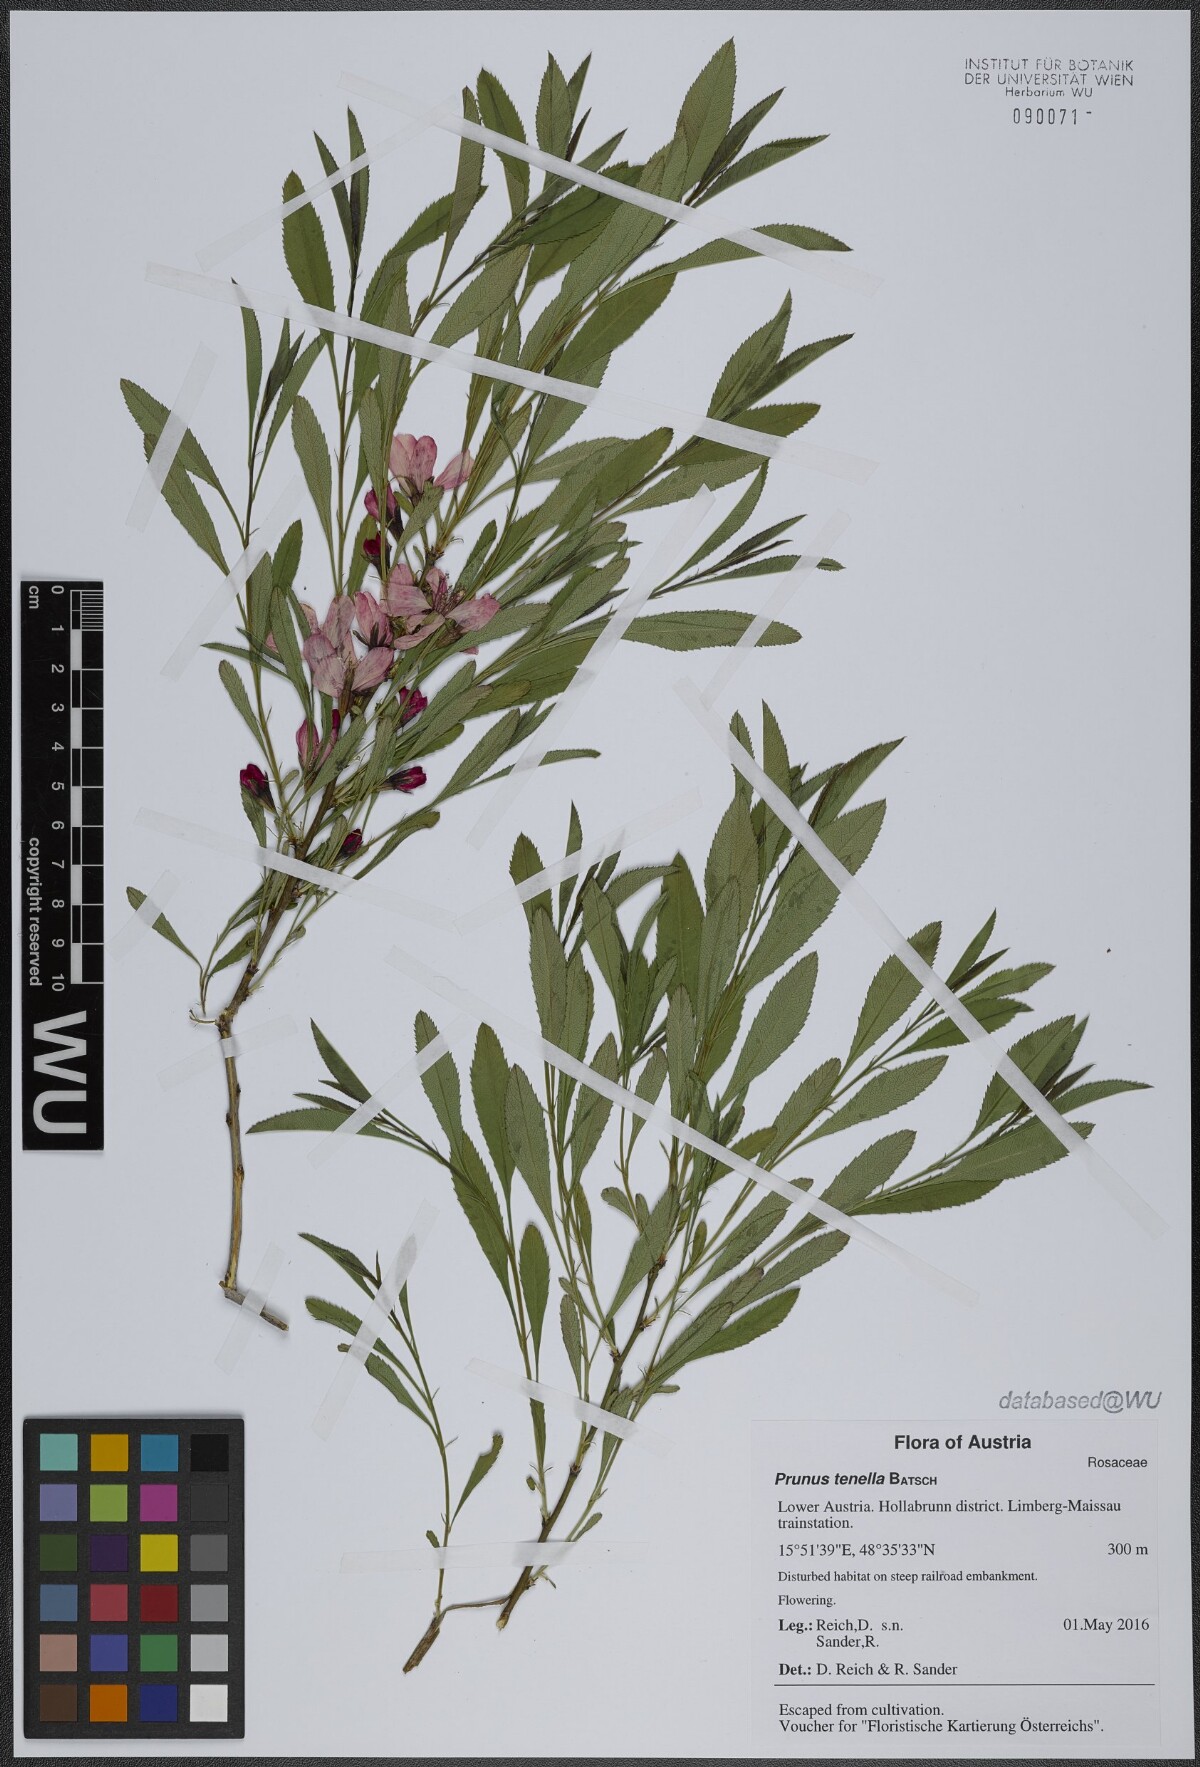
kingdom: Plantae
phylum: Tracheophyta
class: Magnoliopsida
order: Rosales
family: Rosaceae
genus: Prunus
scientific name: Prunus tenella
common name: Dwarf russian almond
